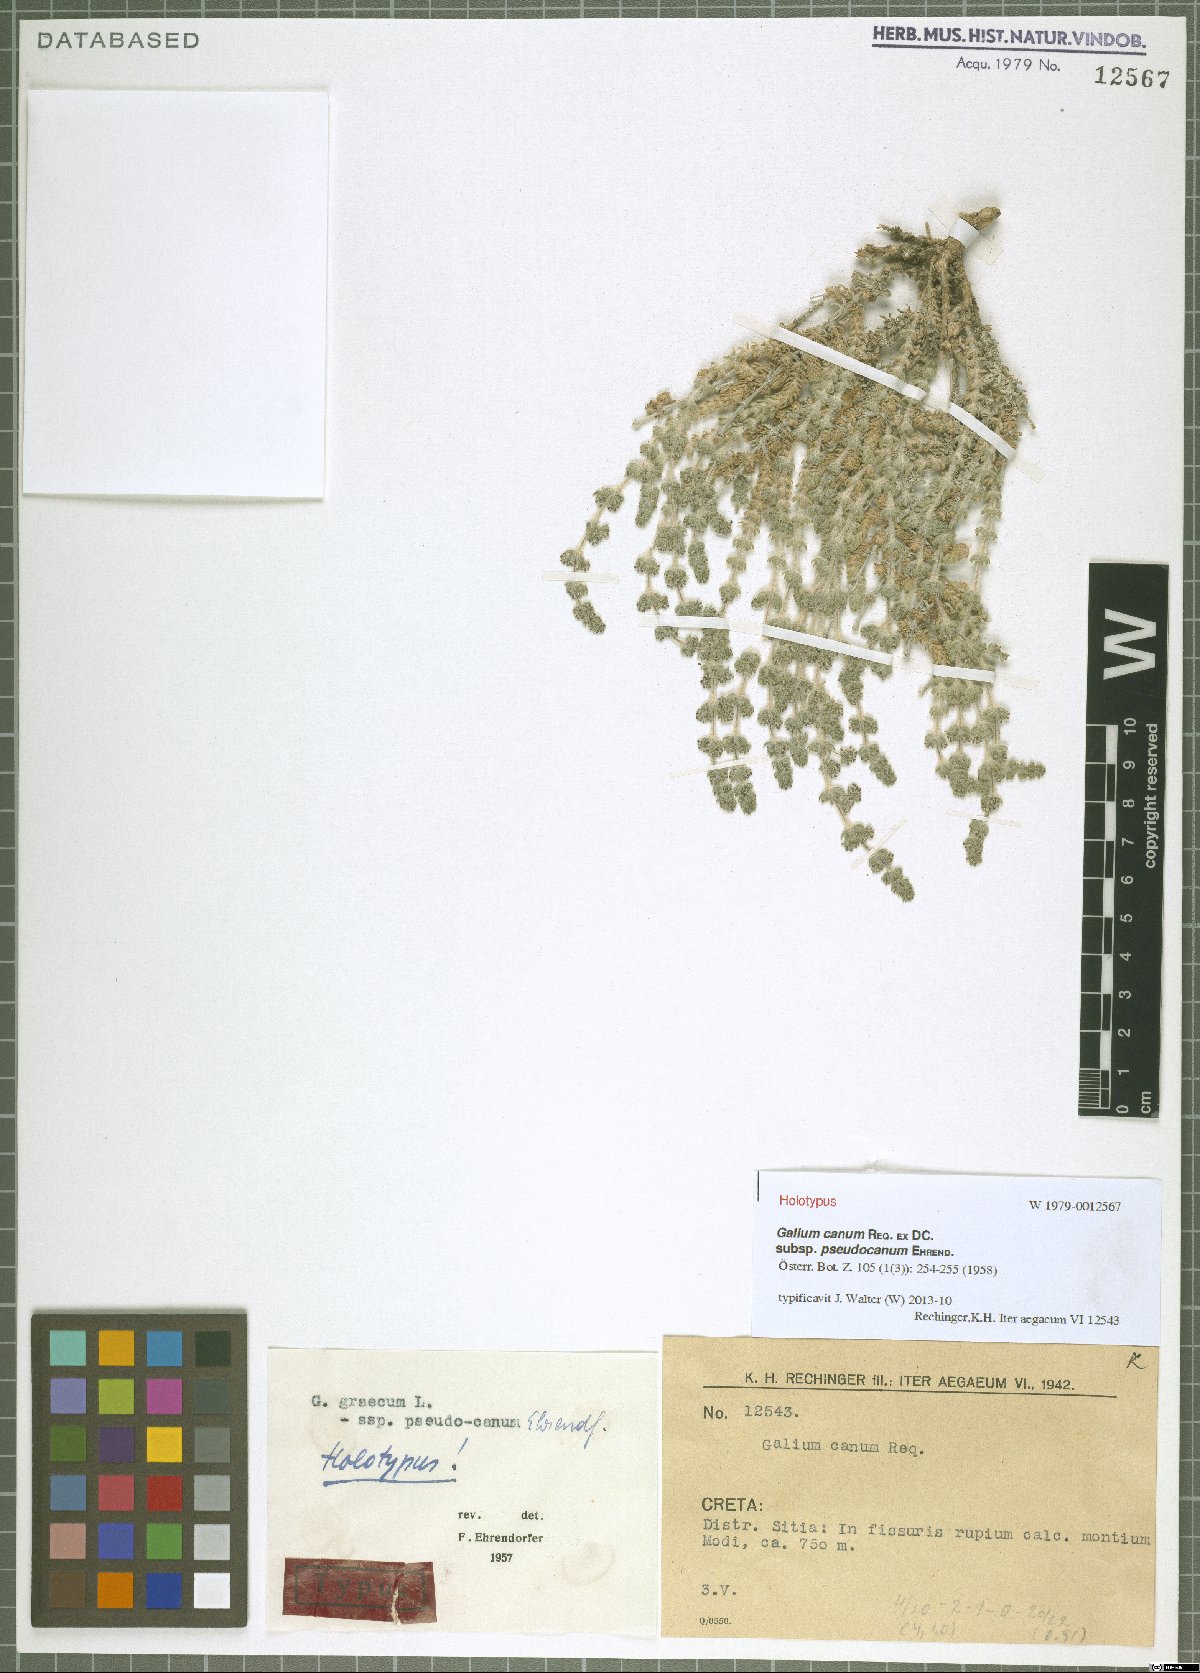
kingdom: Plantae
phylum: Tracheophyta
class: Magnoliopsida
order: Gentianales
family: Rubiaceae
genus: Galium
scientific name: Galium graecum
